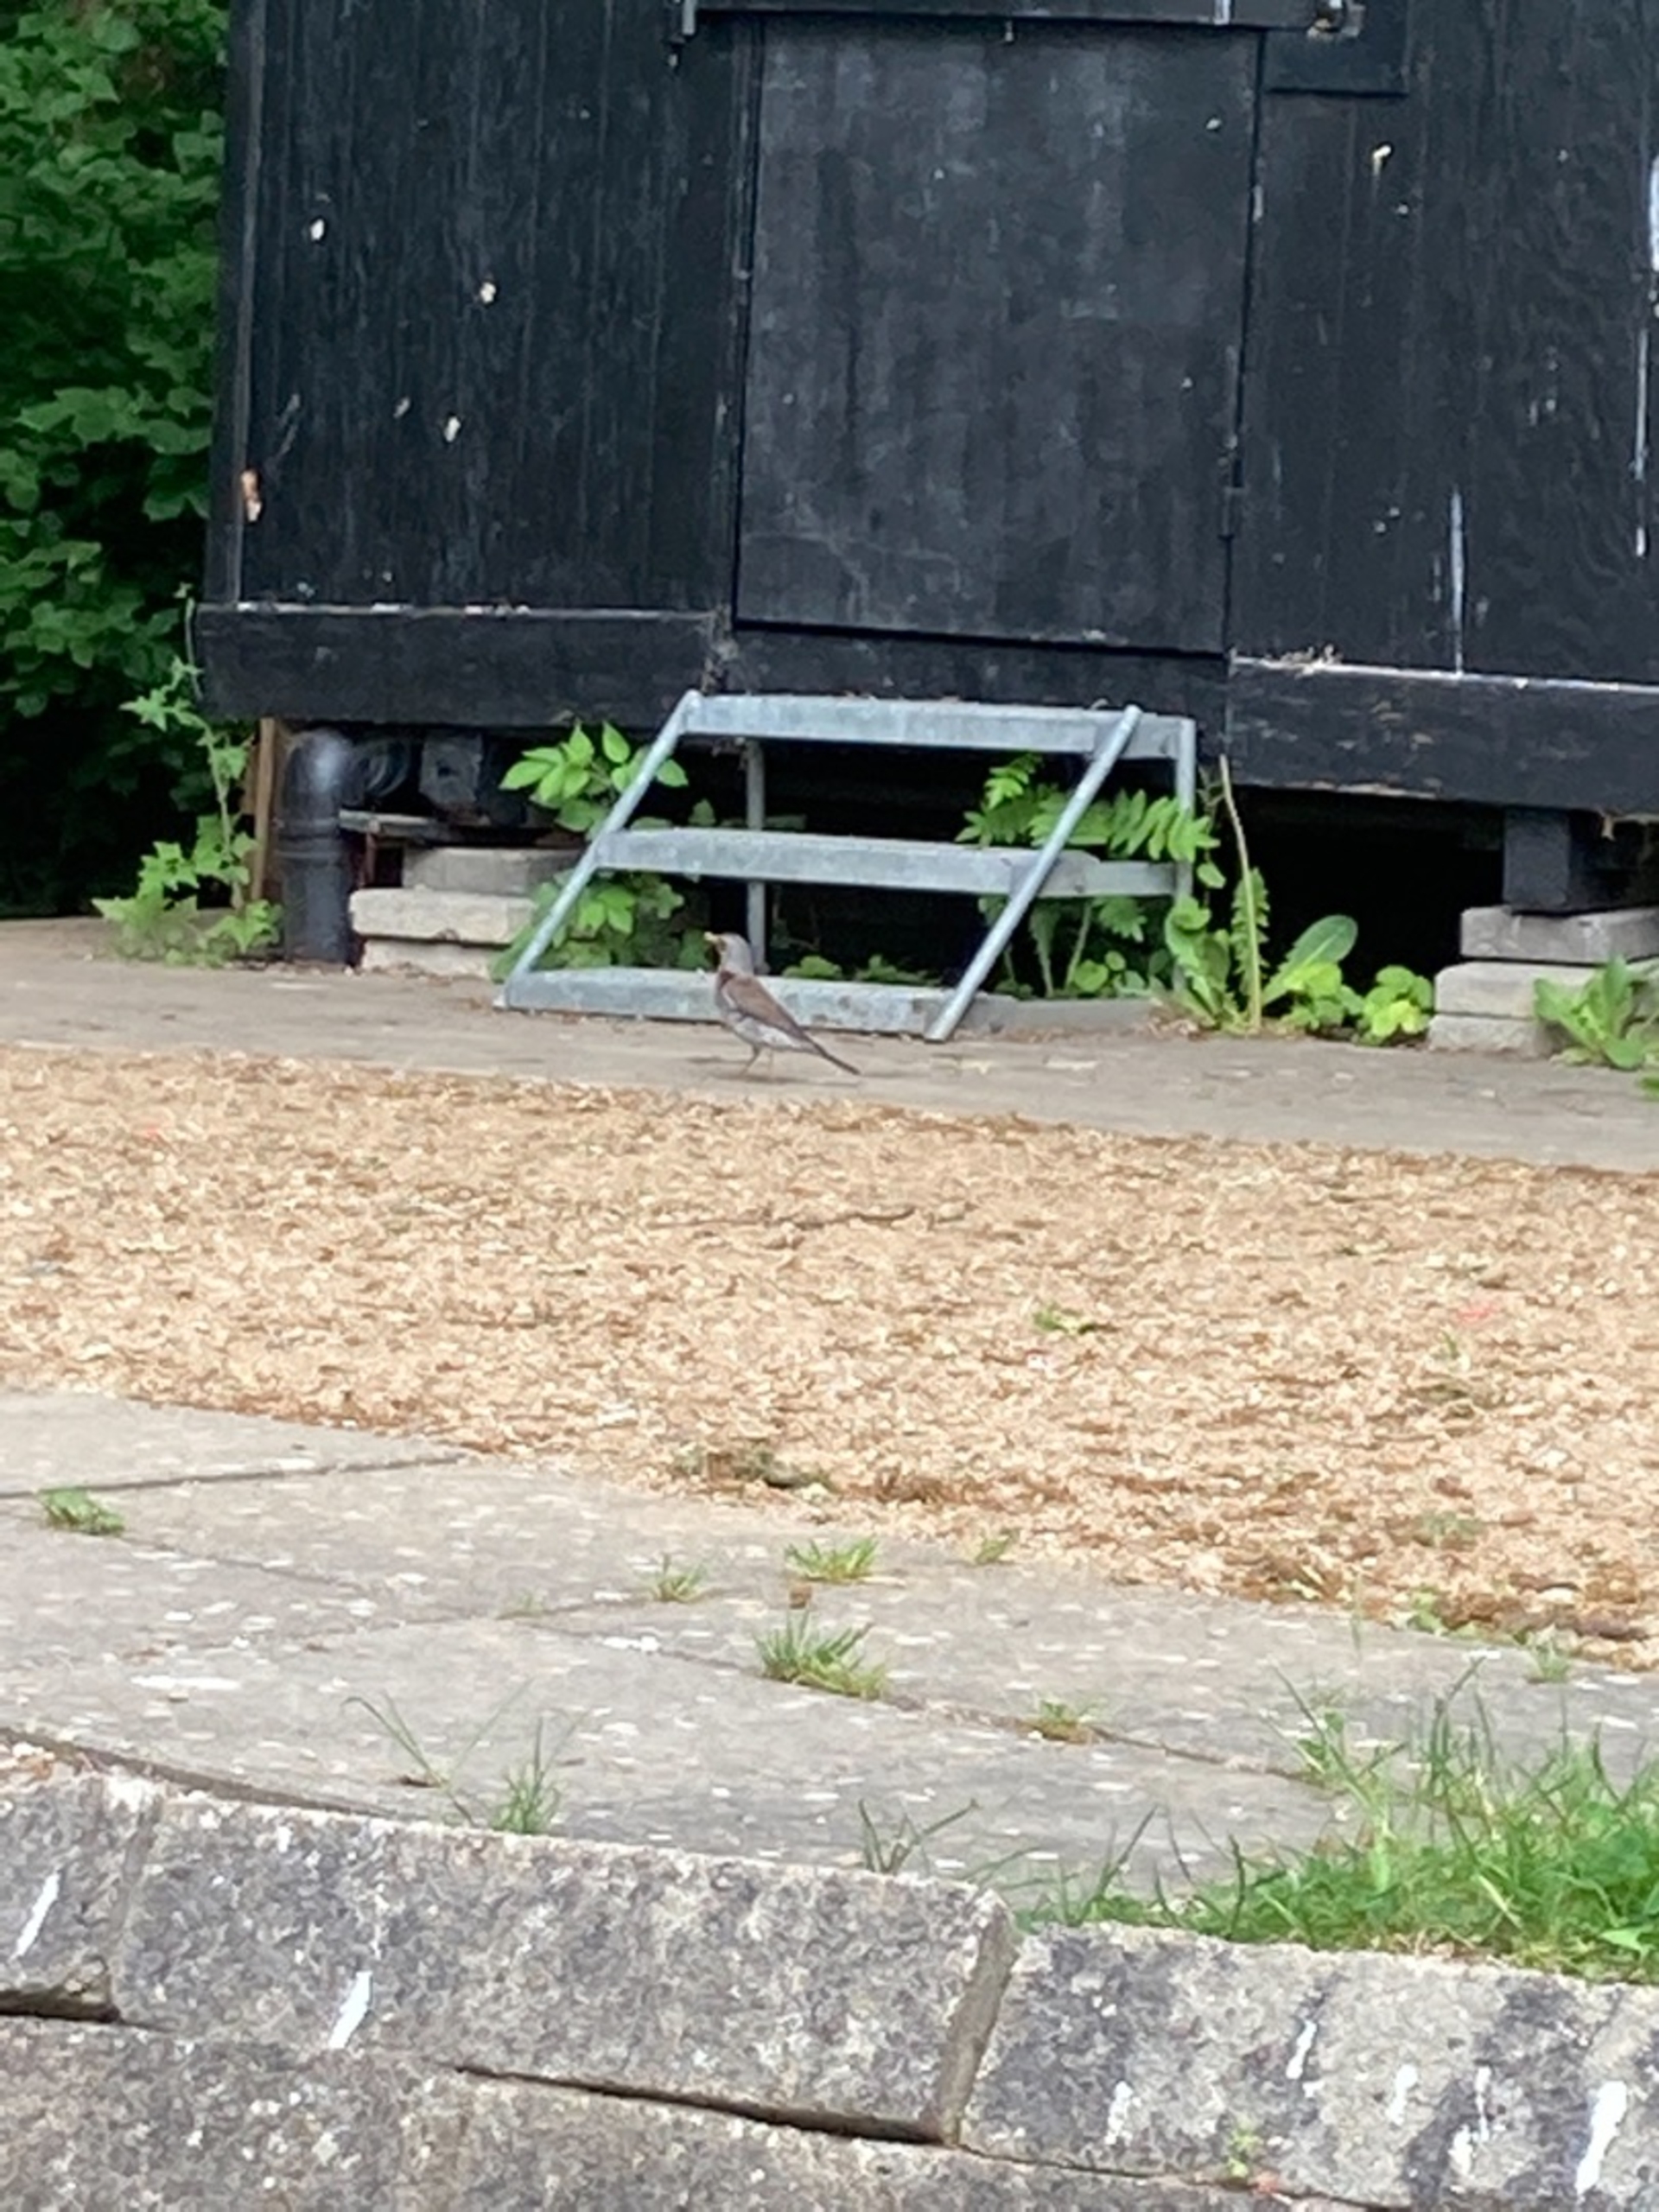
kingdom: Animalia
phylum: Chordata
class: Aves
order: Passeriformes
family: Turdidae
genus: Turdus
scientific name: Turdus pilaris
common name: Sjagger
